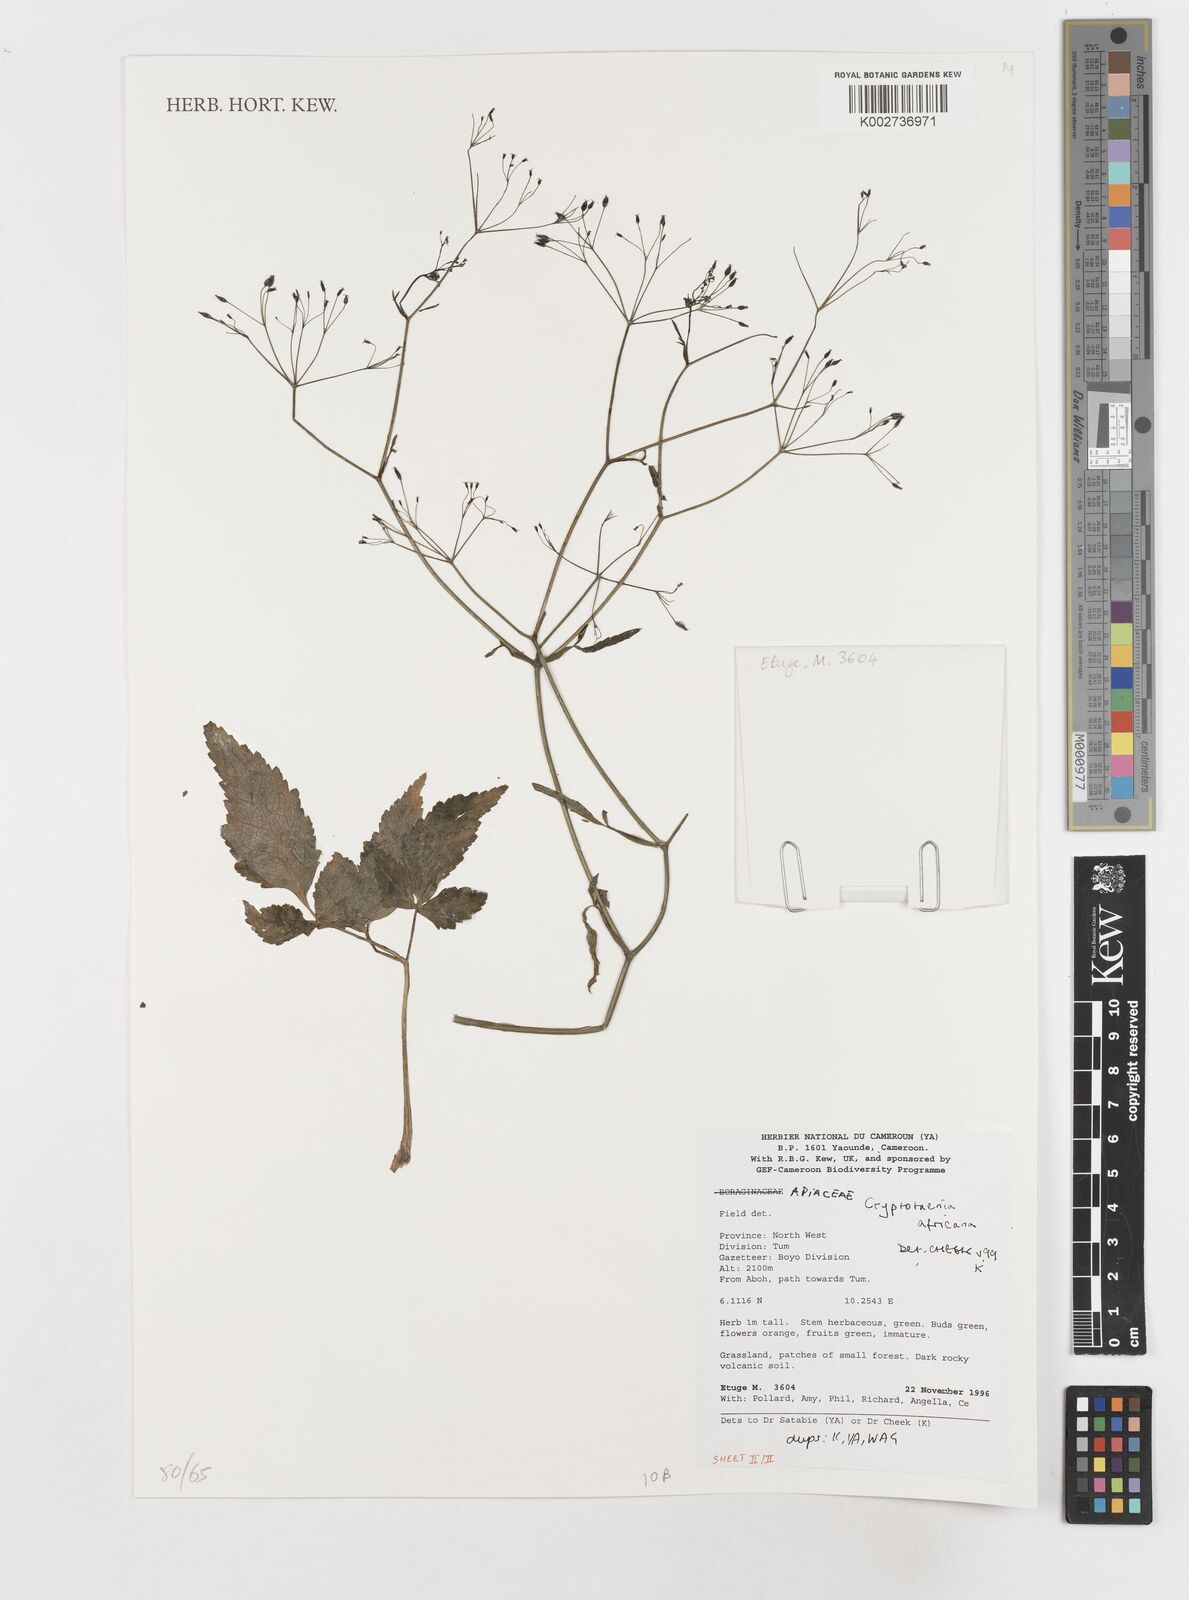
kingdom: Plantae
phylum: Tracheophyta
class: Magnoliopsida
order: Apiales
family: Apiaceae
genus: Cryptotaenia
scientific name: Cryptotaenia africana
